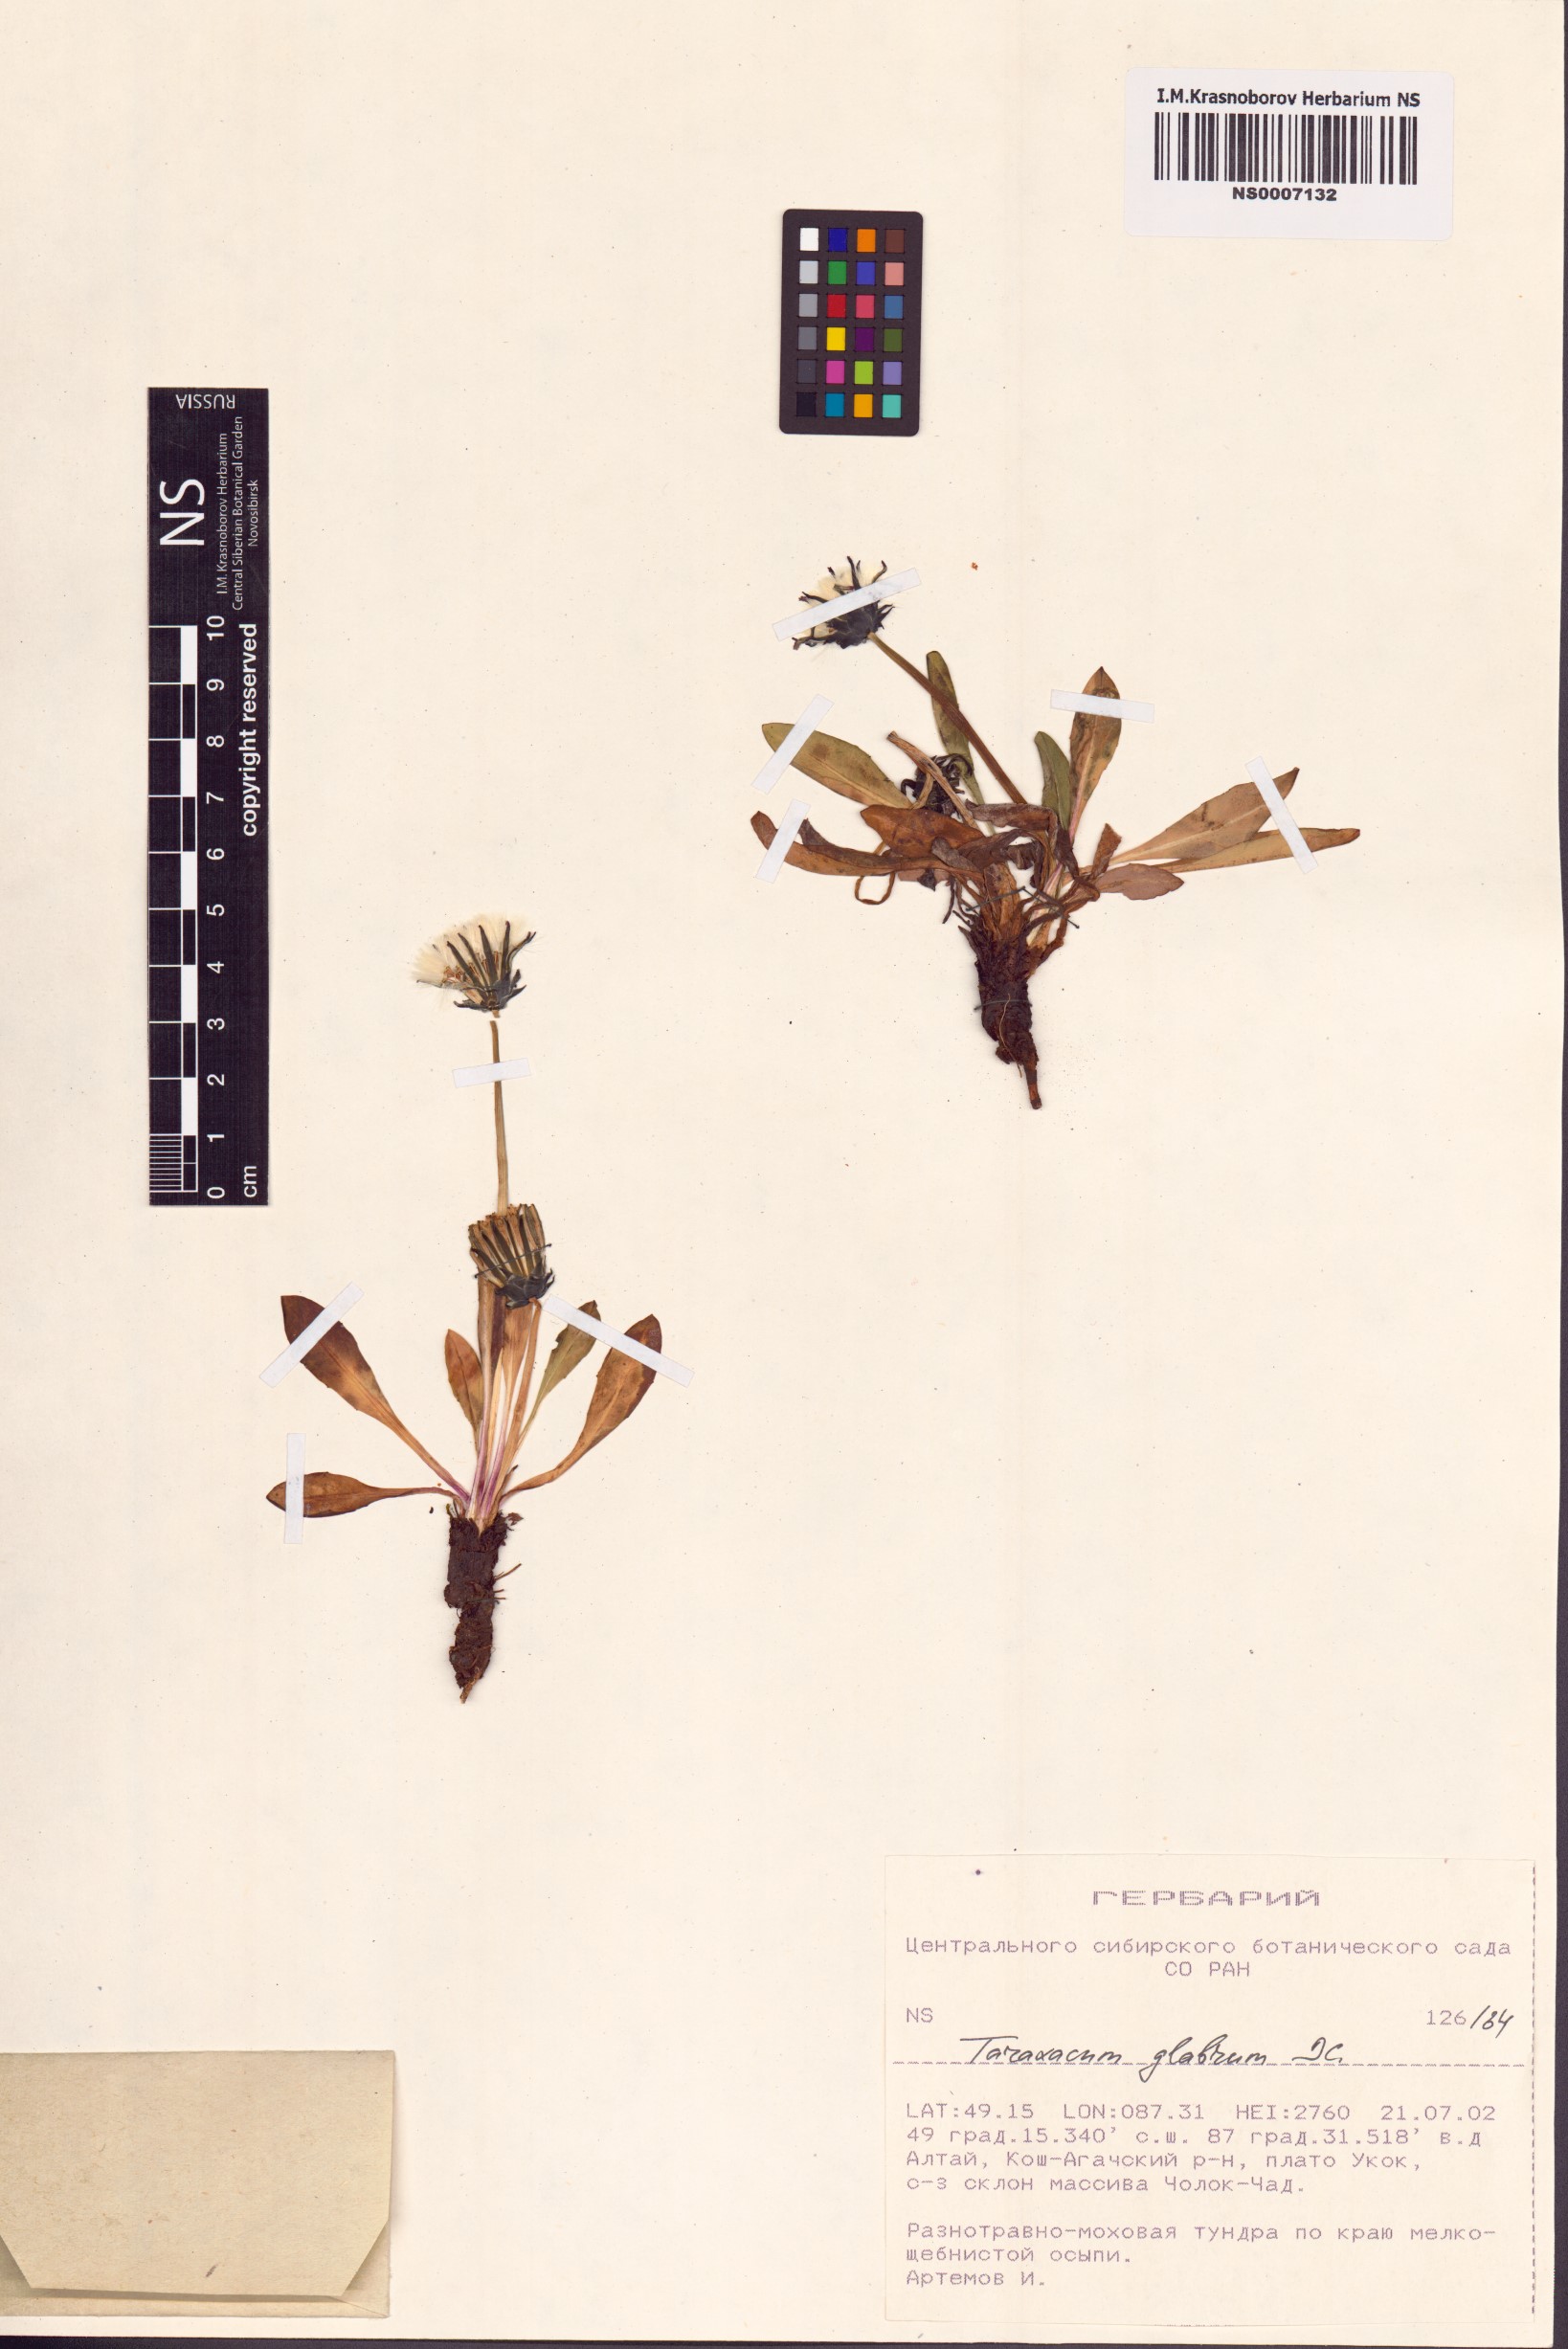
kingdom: Plantae
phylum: Tracheophyta
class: Magnoliopsida
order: Asterales
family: Asteraceae
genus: Taraxacum
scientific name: Taraxacum glabrum
